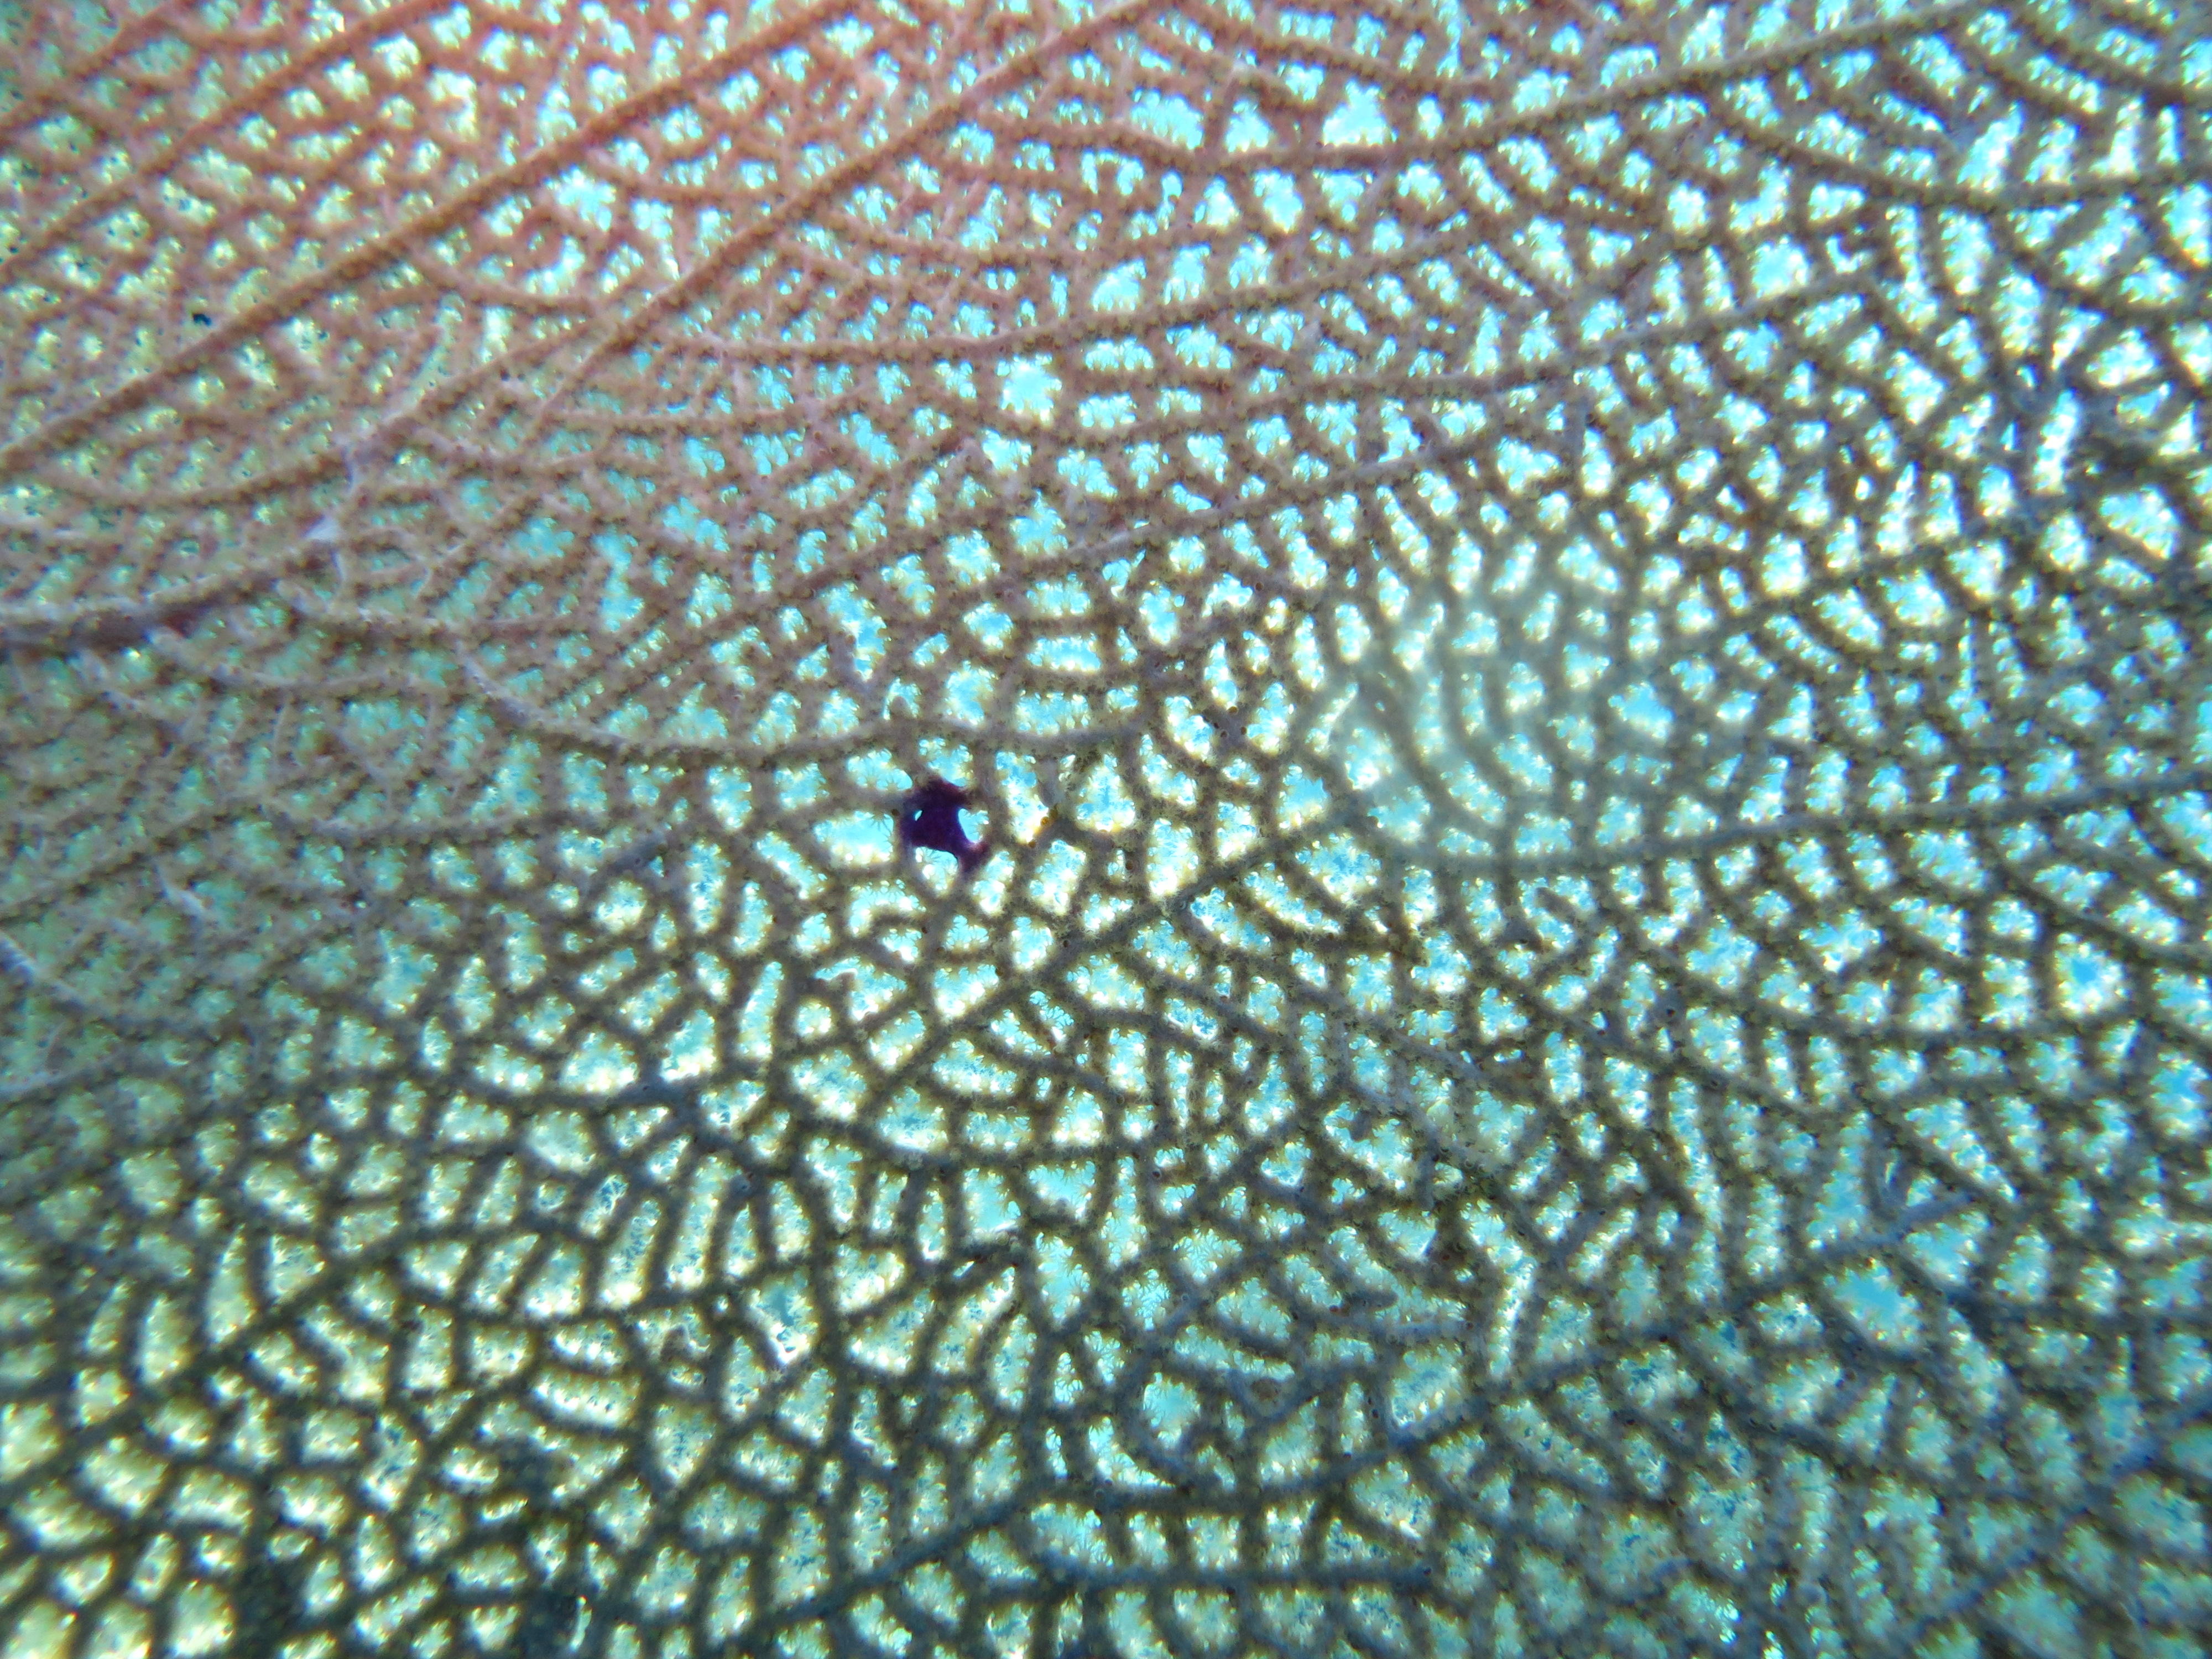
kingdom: Animalia
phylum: Cnidaria
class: Anthozoa
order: Malacalcyonacea
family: Gorgoniidae
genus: Gorgonia
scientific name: Gorgonia ventalina
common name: Common sea fan
